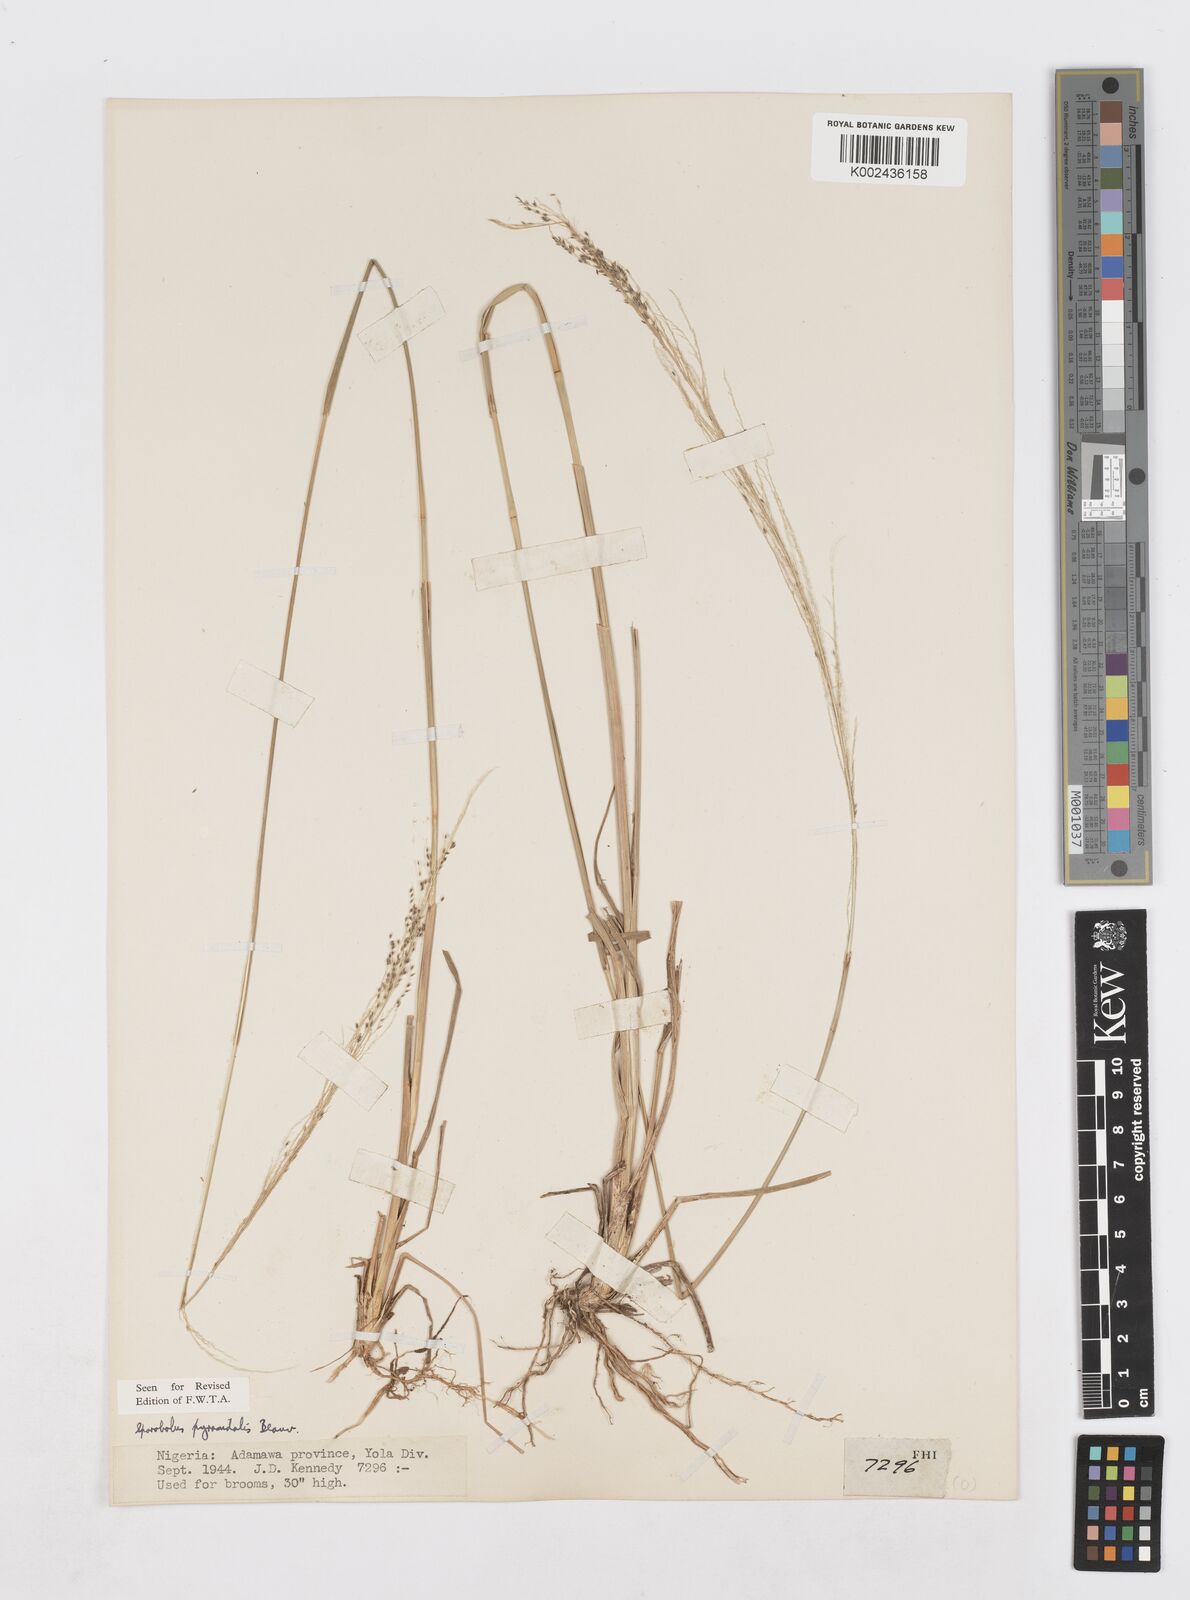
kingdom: Plantae
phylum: Tracheophyta
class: Liliopsida
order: Poales
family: Poaceae
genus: Sporobolus
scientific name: Sporobolus pyramidalis
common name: West indian dropseed
